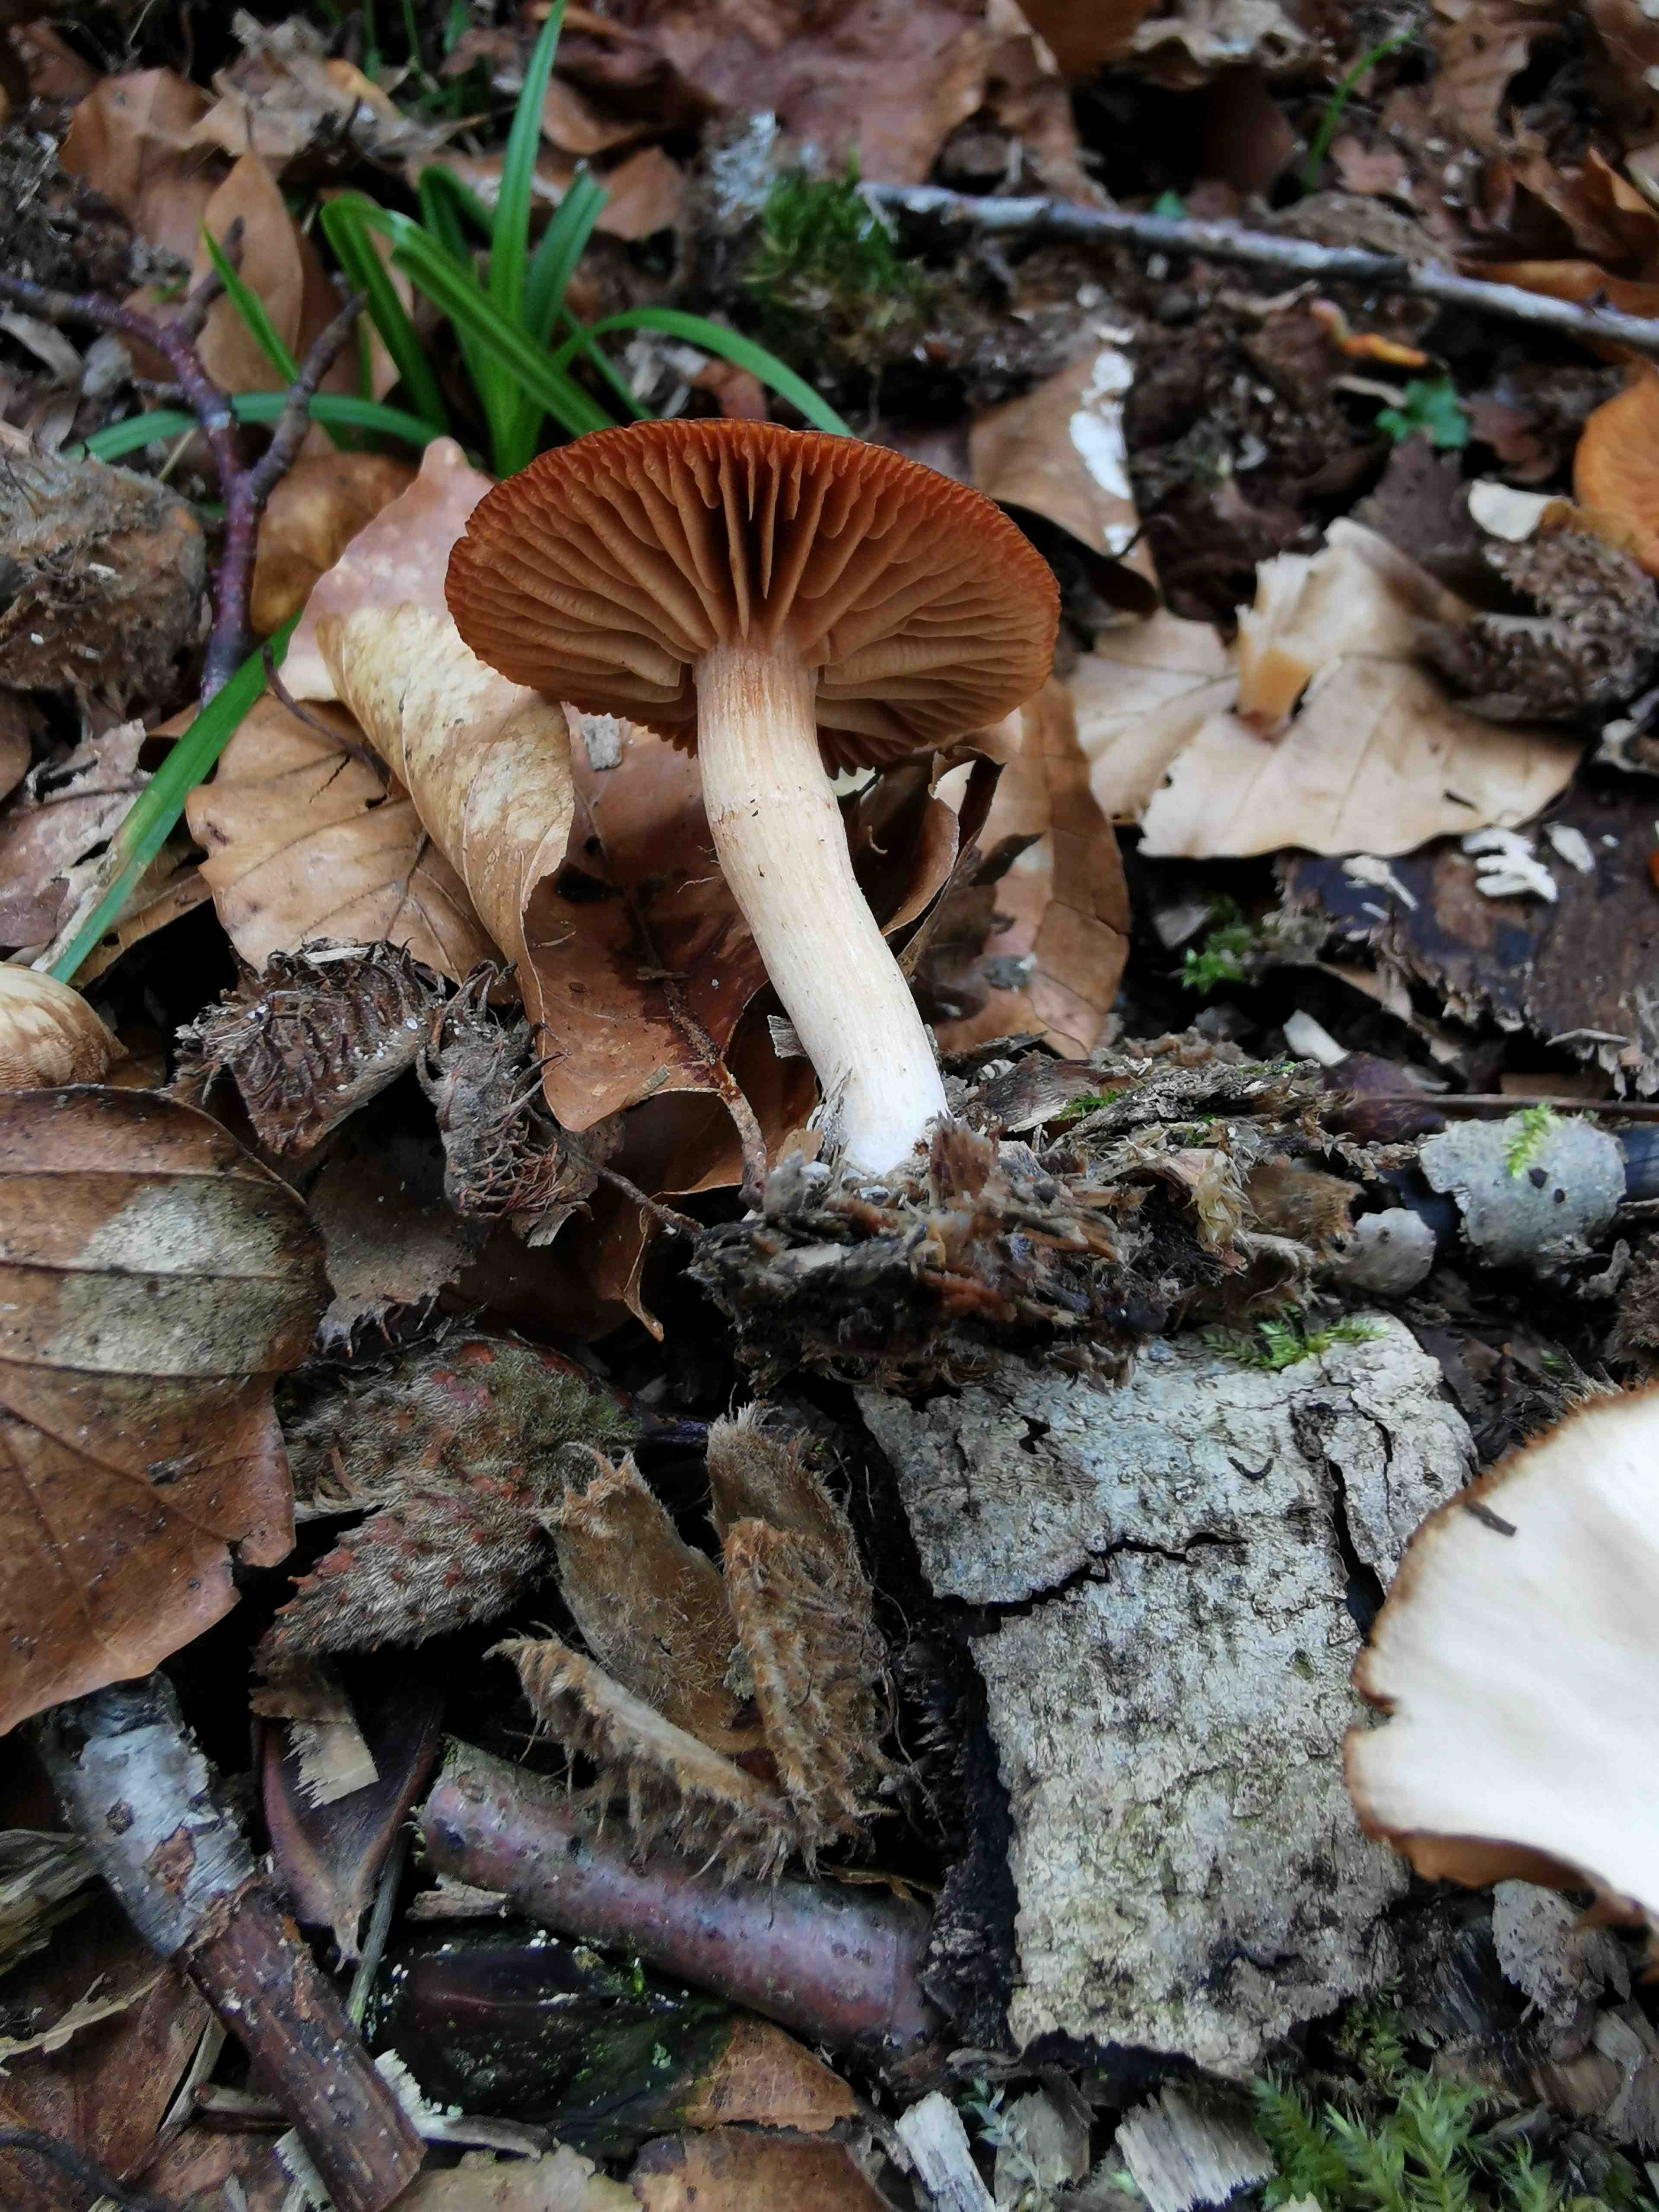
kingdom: Fungi
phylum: Basidiomycota
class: Agaricomycetes
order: Agaricales
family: Tubariaceae
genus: Tubaria
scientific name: Tubaria furfuracea
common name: kliddet fnughat
